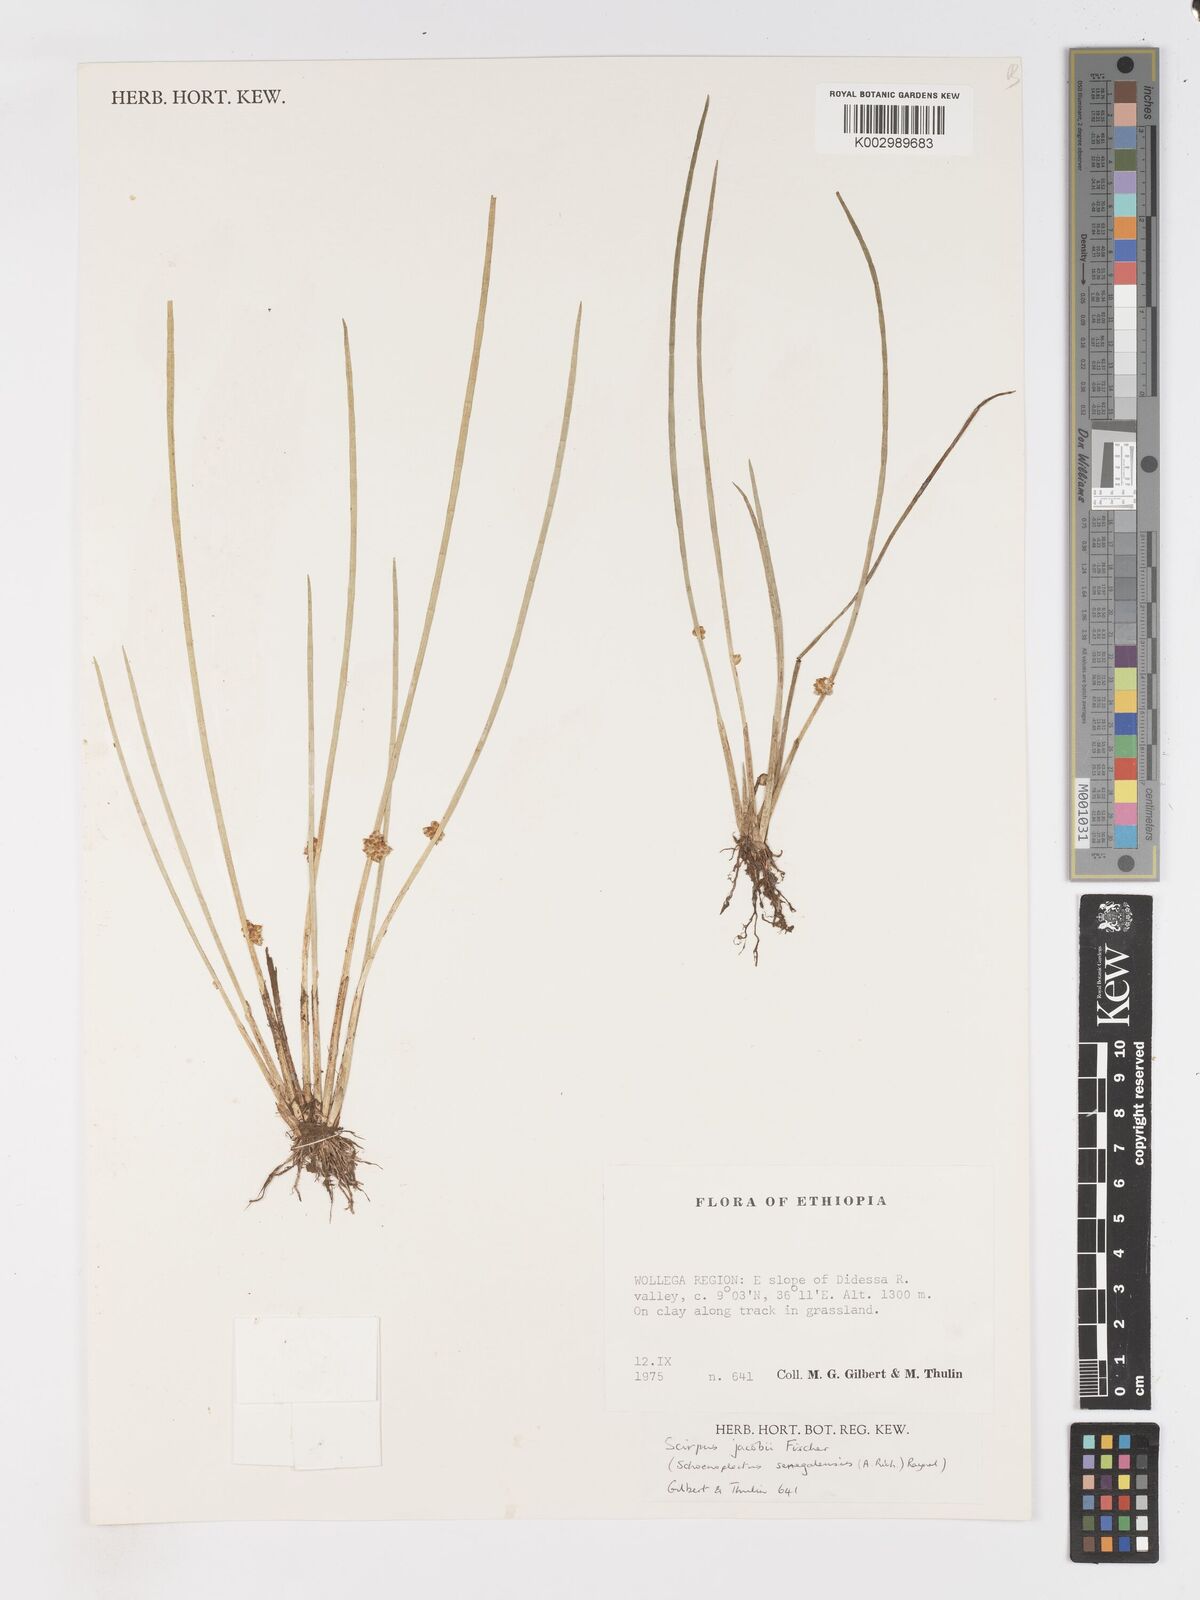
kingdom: Plantae
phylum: Tracheophyta
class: Liliopsida
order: Poales
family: Cyperaceae
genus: Schoenoplectiella
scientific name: Schoenoplectiella senegalensis
